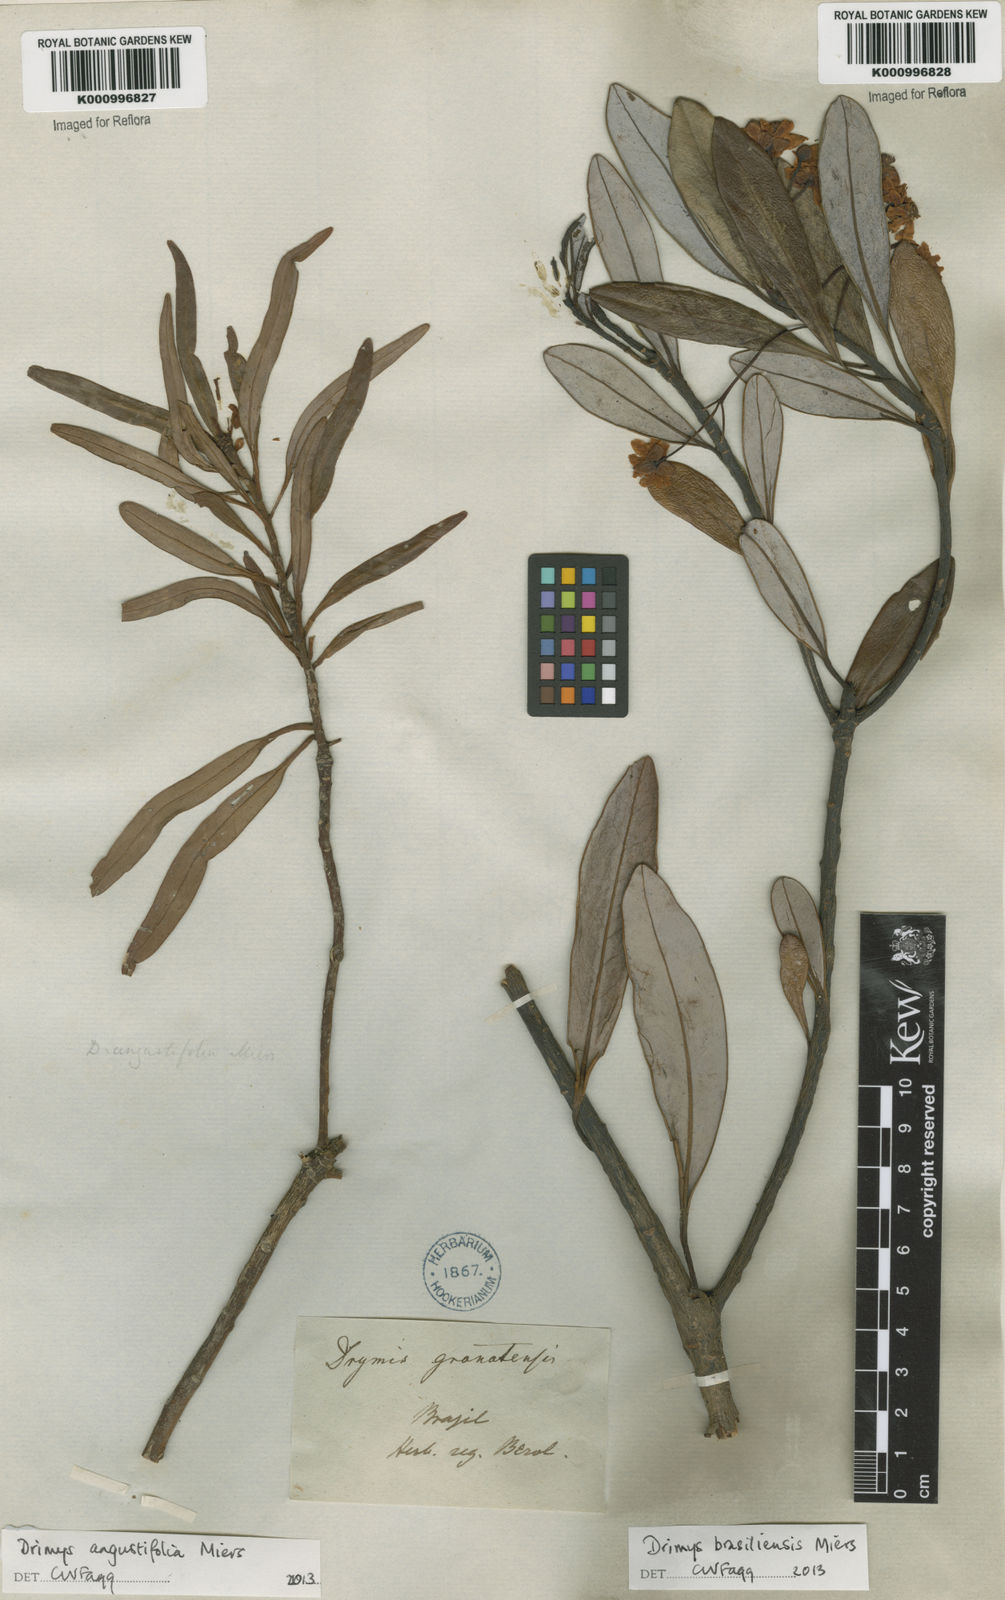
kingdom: Plantae
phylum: Tracheophyta
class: Magnoliopsida
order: Canellales
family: Winteraceae
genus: Drimys
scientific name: Drimys angustifolia
